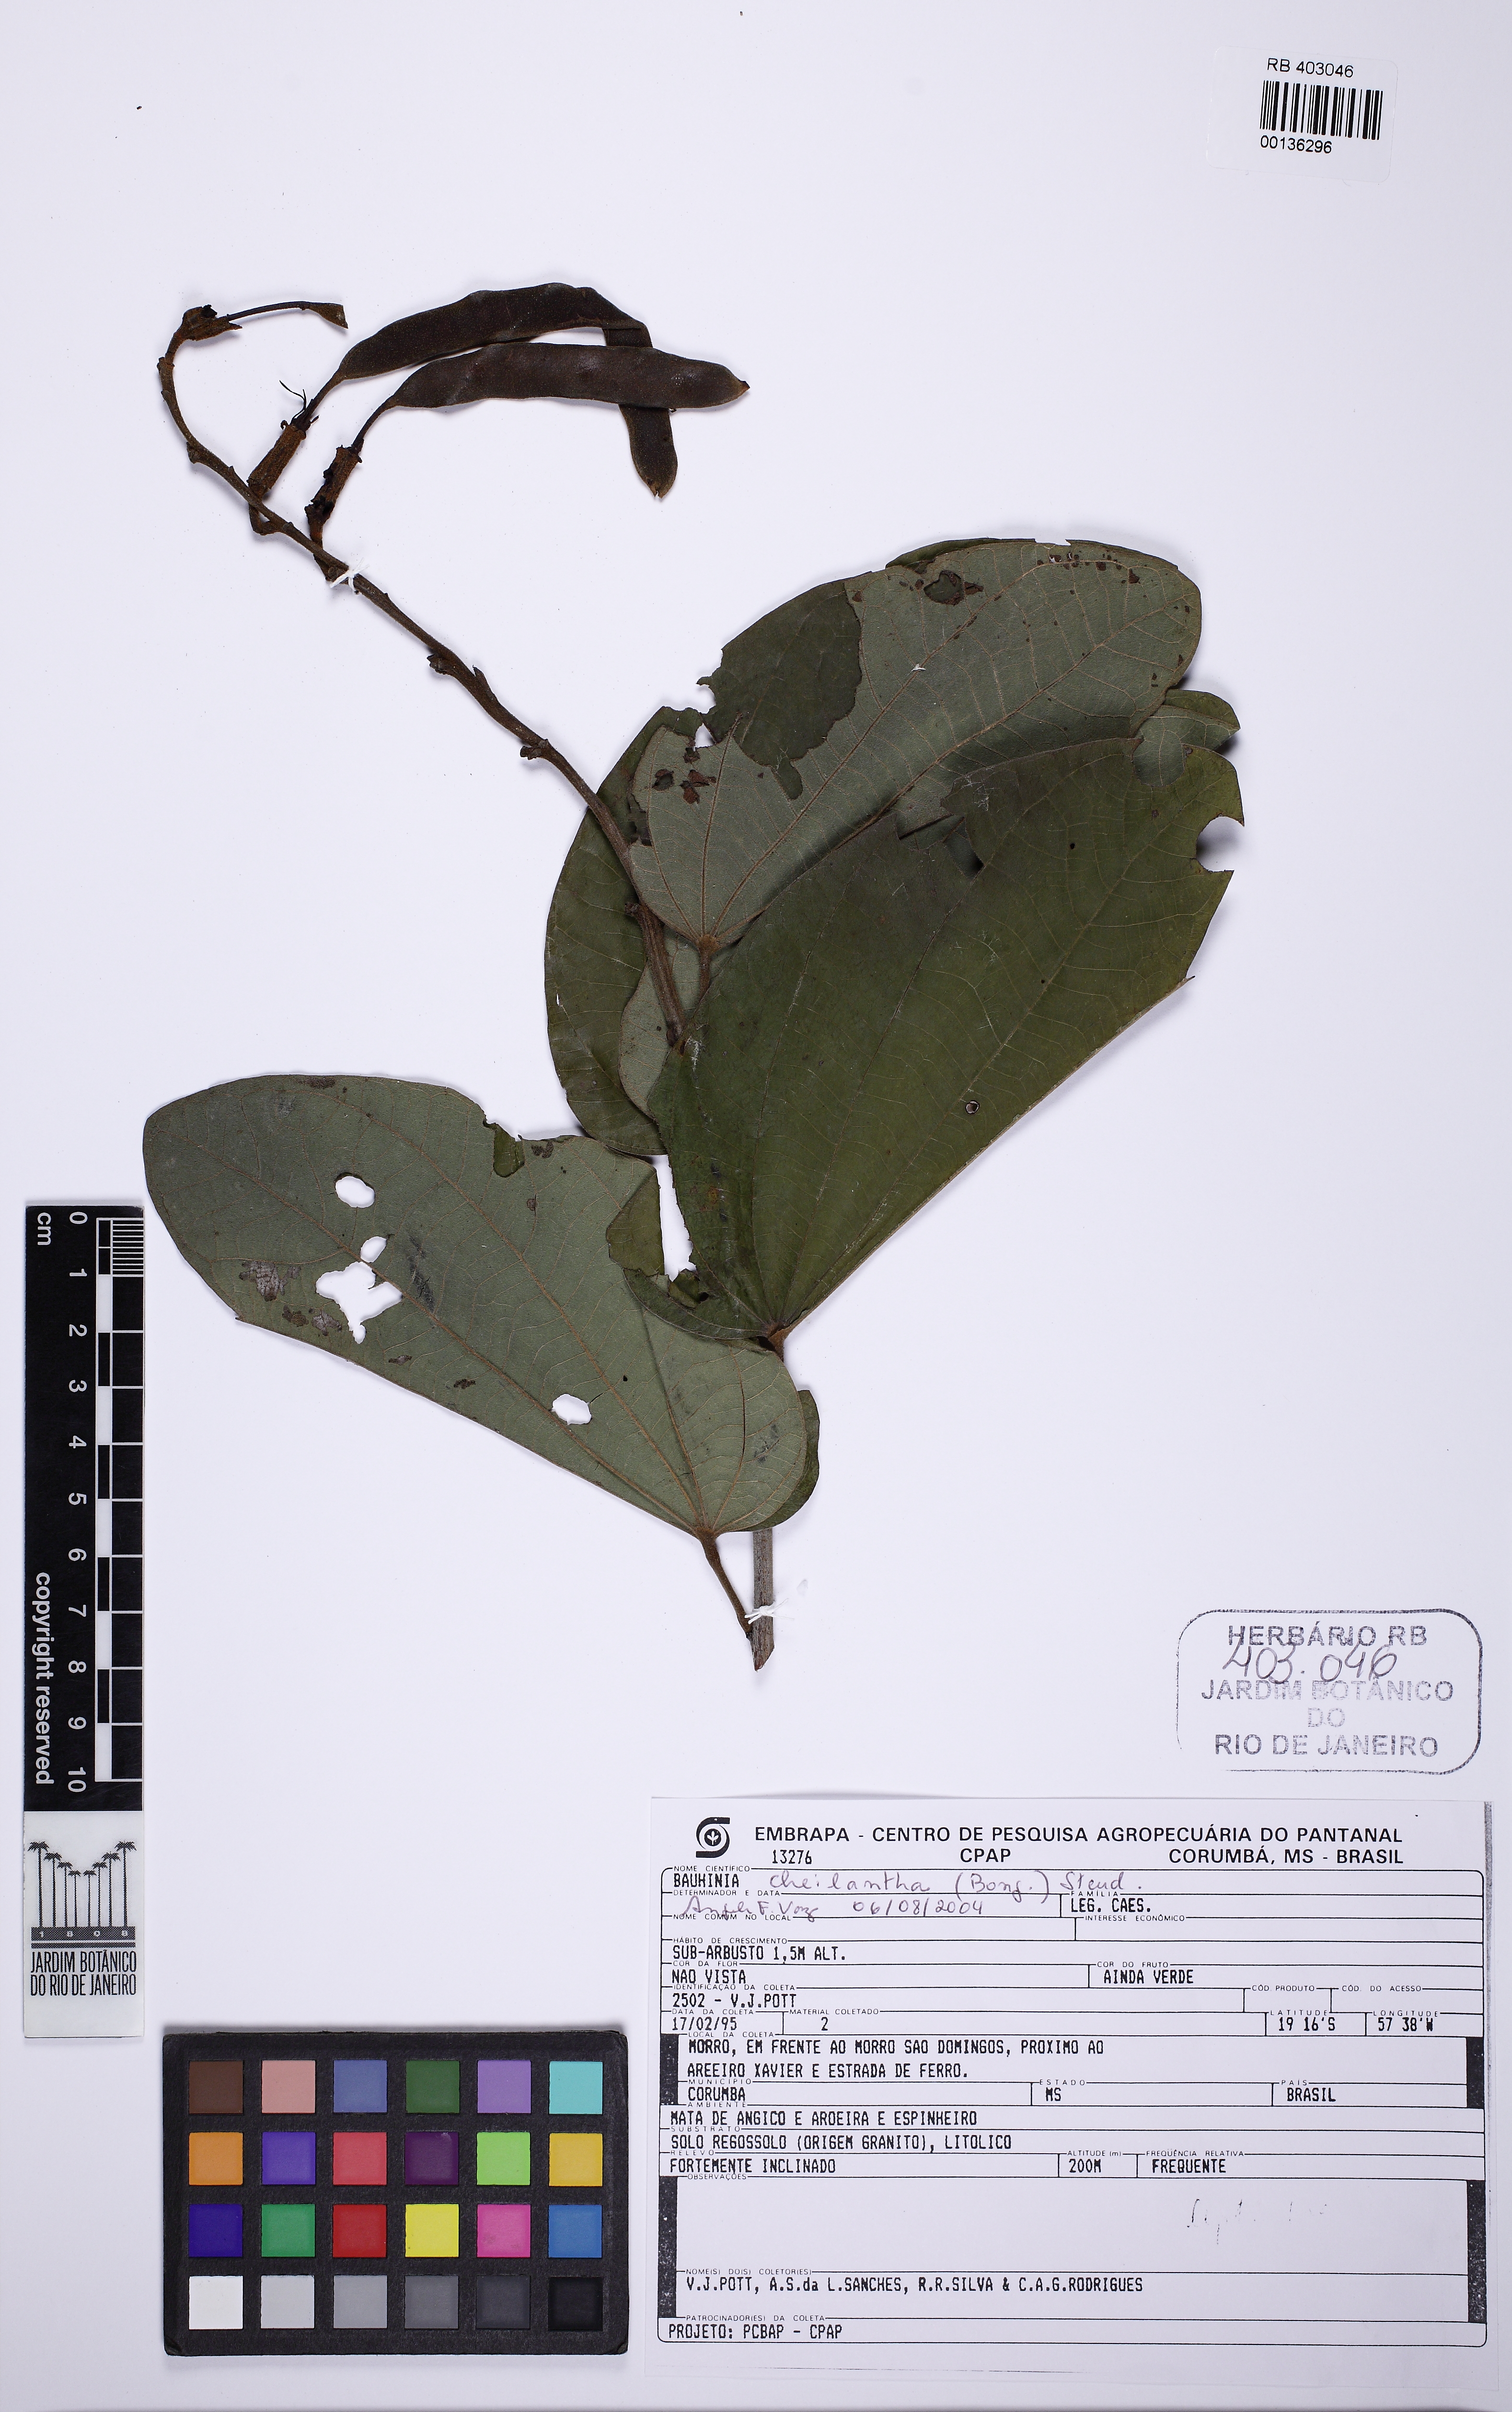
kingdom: Plantae
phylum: Tracheophyta
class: Magnoliopsida
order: Fabales
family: Fabaceae
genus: Bauhinia
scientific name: Bauhinia cheilantha
